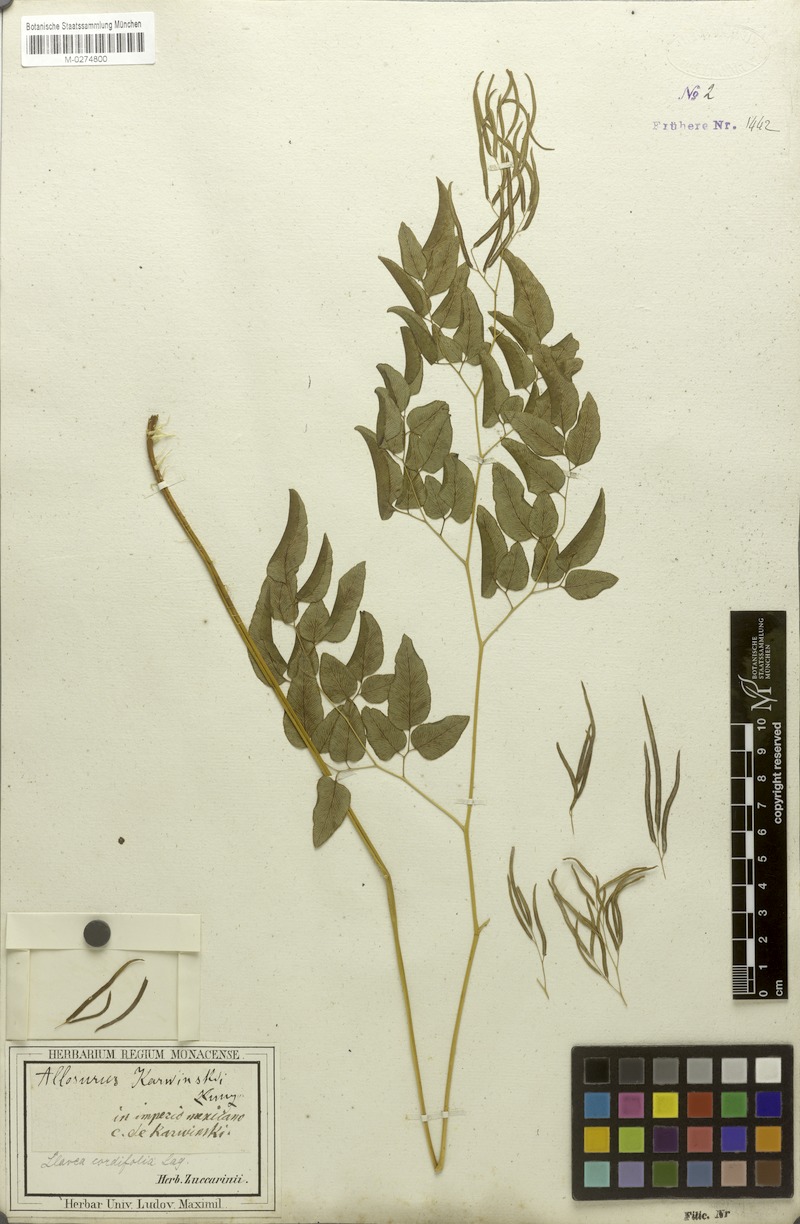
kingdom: Plantae
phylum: Tracheophyta
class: Polypodiopsida
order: Polypodiales
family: Pteridaceae
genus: Llavea
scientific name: Llavea cordifolia
